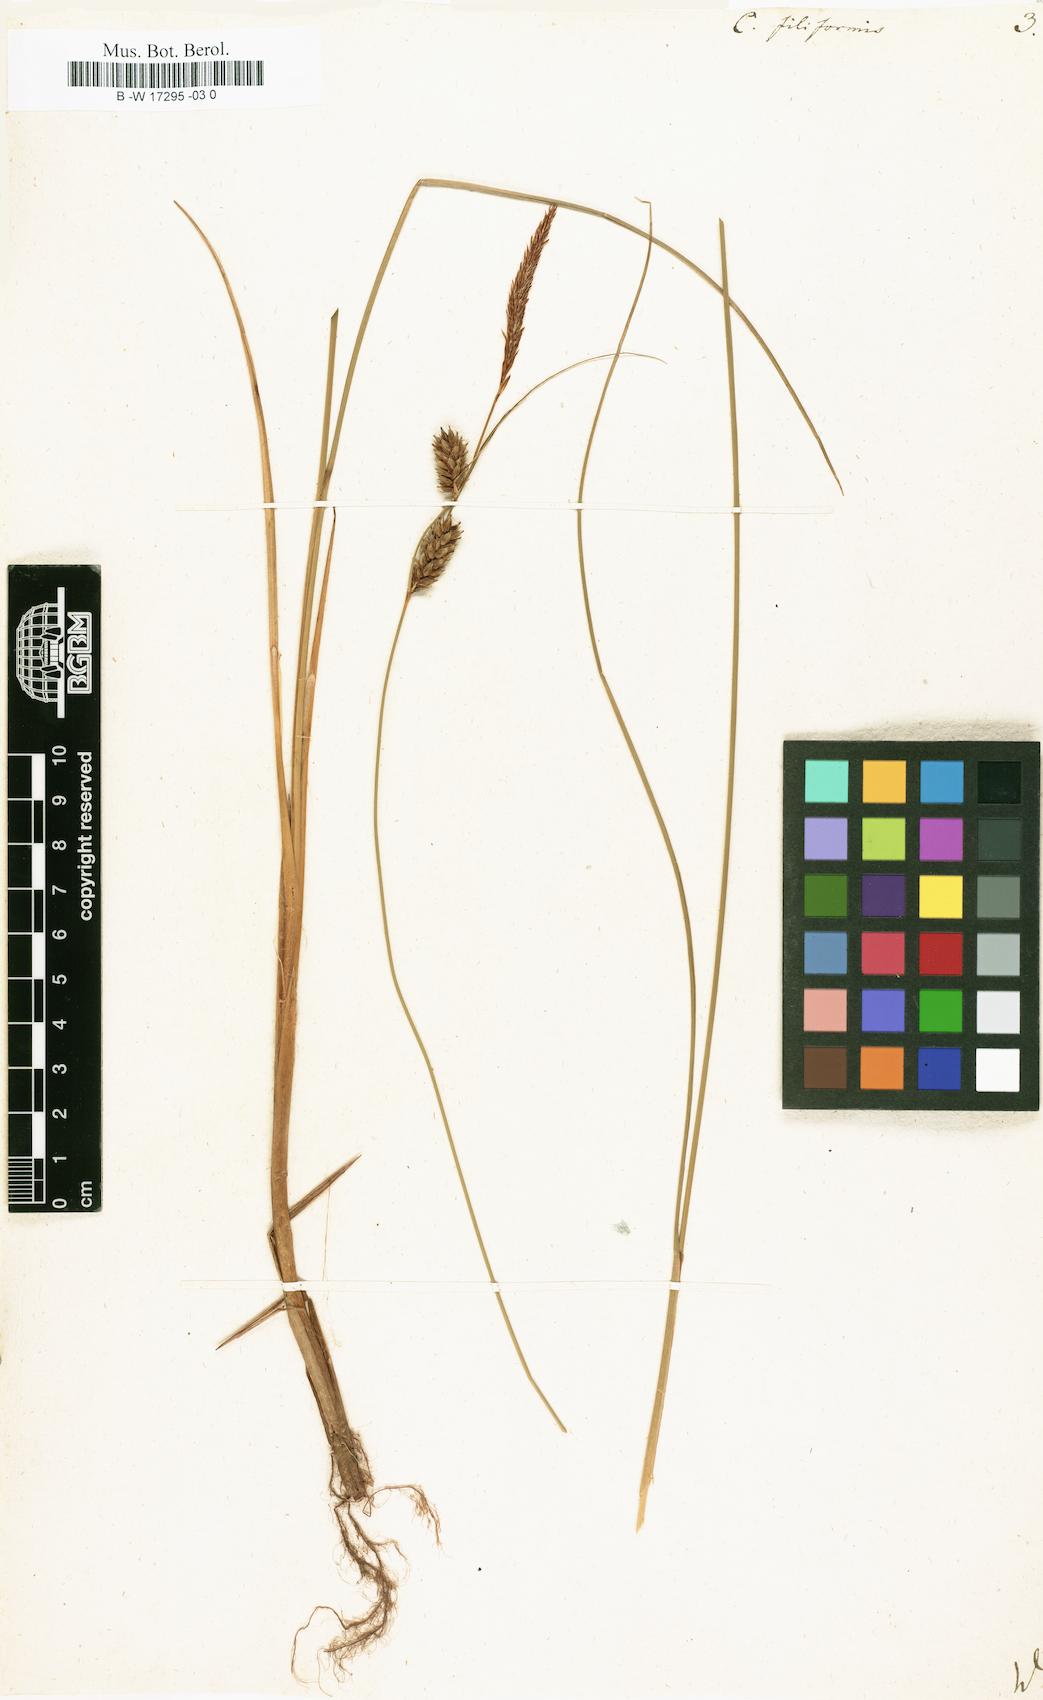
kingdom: Plantae
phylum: Tracheophyta
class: Liliopsida
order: Poales
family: Cyperaceae
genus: Carex
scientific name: Carex montana
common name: Soft-leaved sedge
